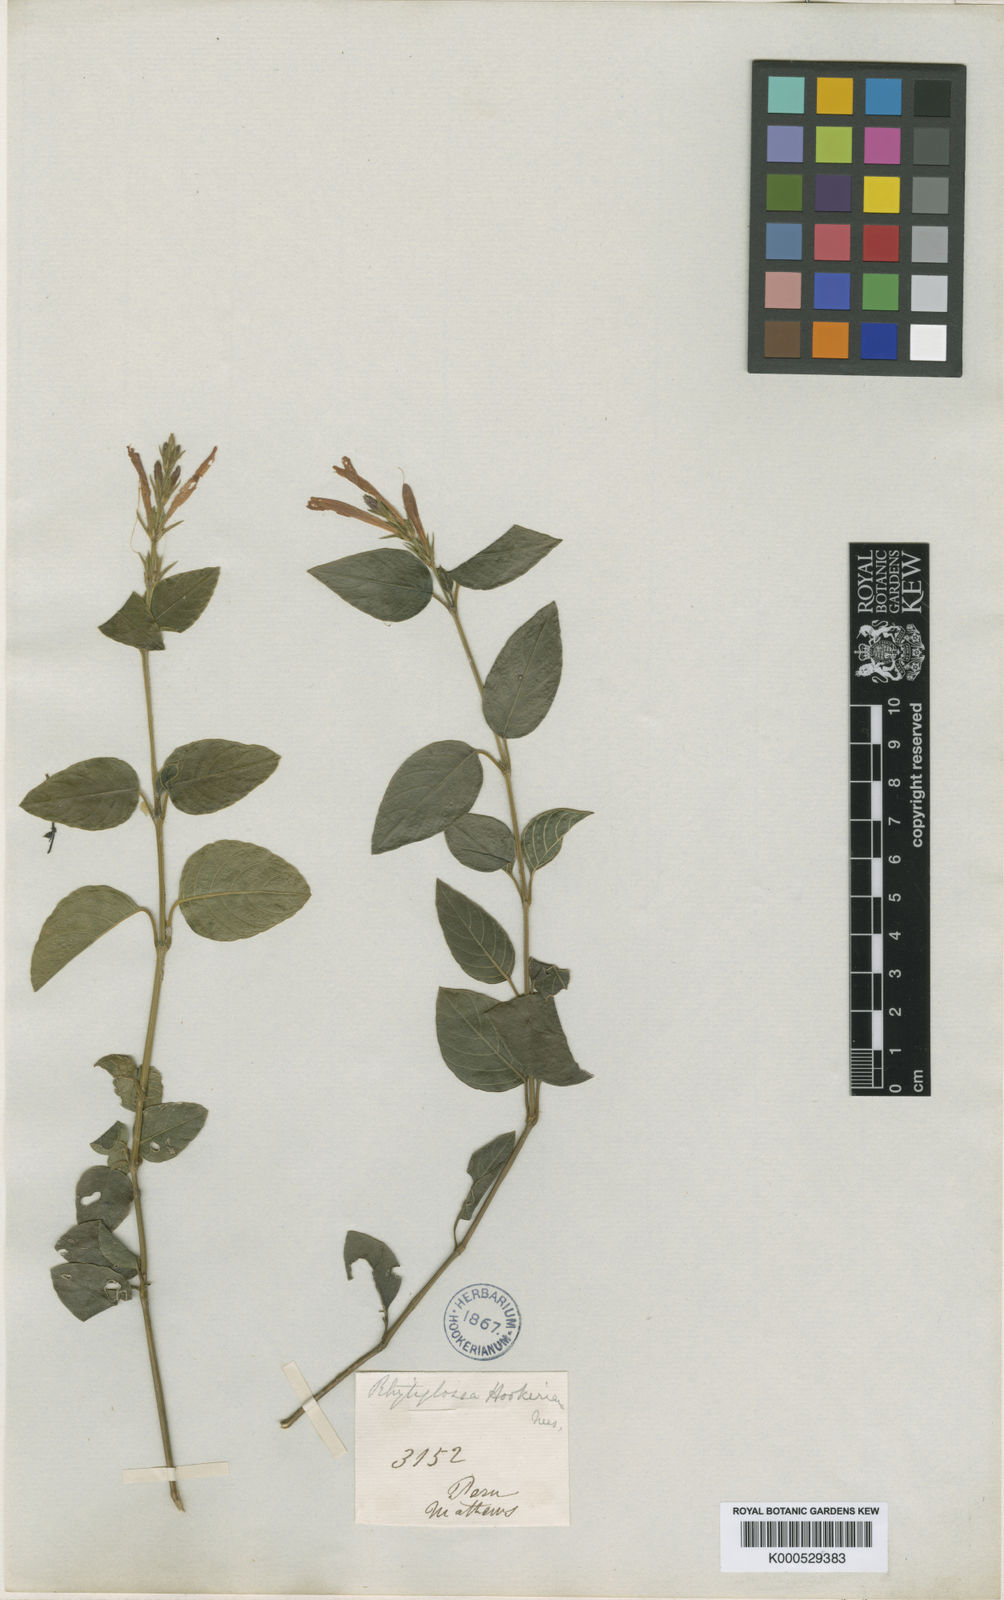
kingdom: Plantae
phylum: Tracheophyta
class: Magnoliopsida
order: Lamiales
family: Acanthaceae
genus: Justicia
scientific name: Justicia
